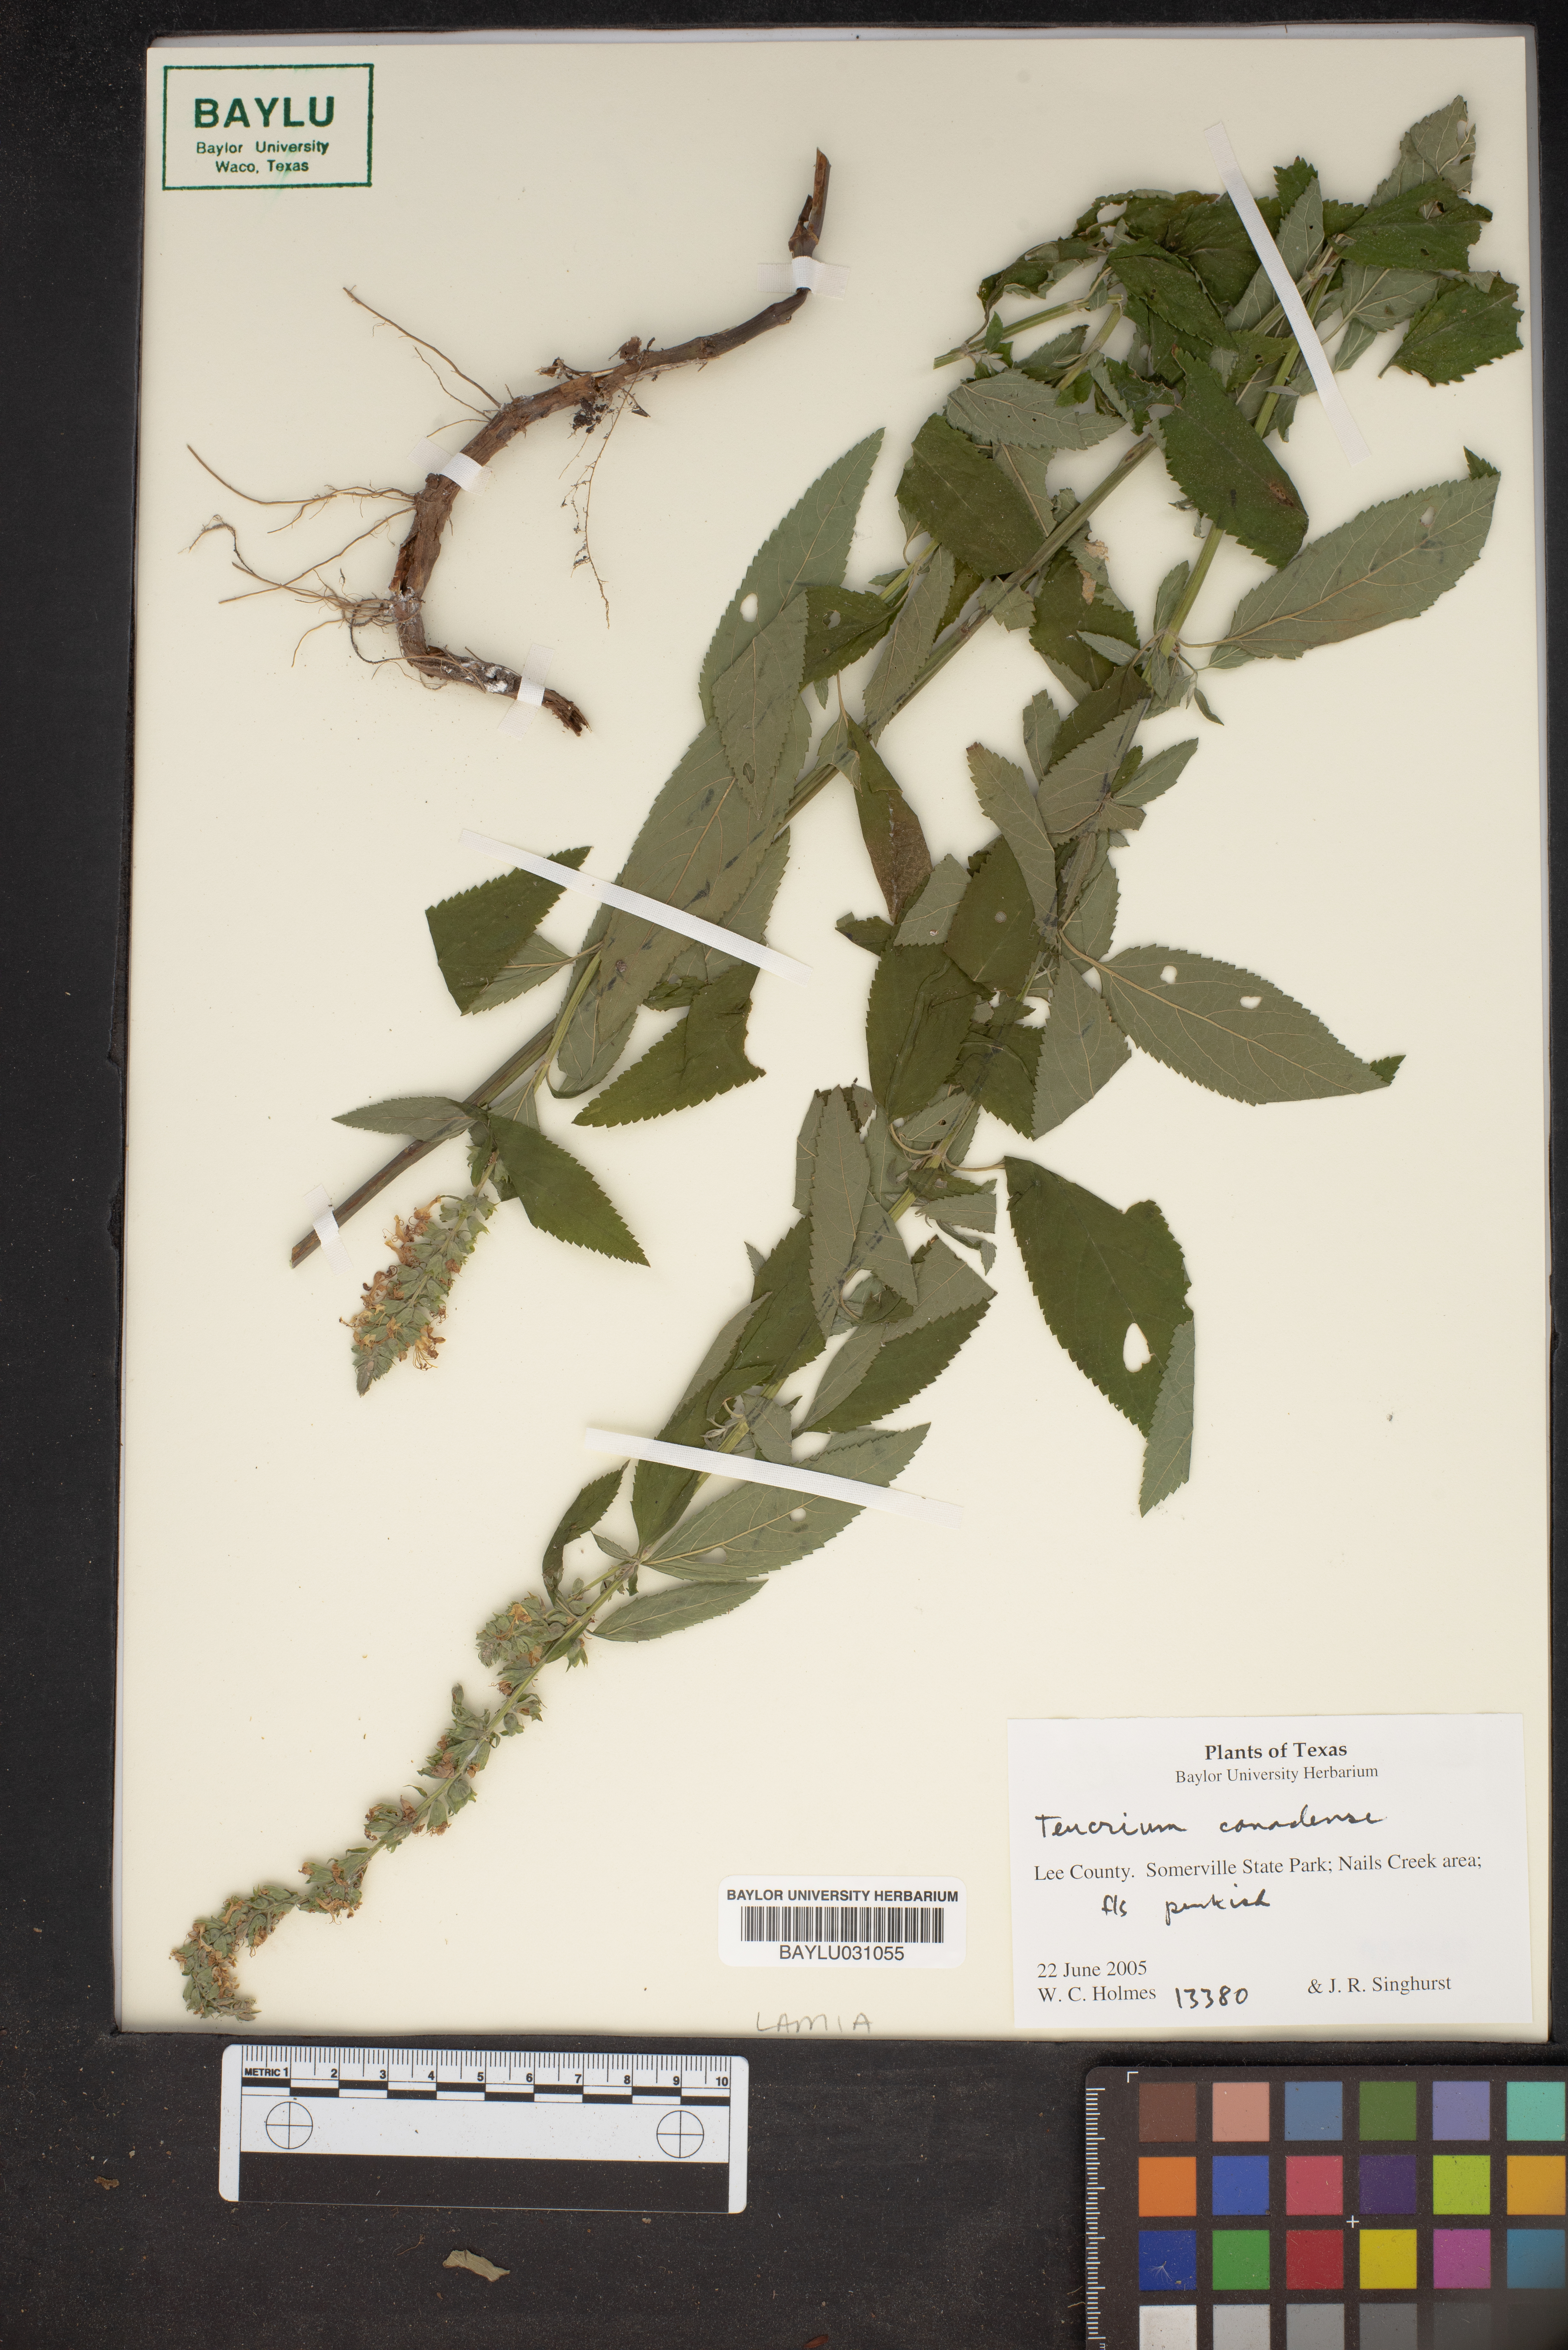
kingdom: Plantae
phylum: Tracheophyta
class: Magnoliopsida
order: Lamiales
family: Lamiaceae
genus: Teucrium
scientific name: Teucrium canadense
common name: American germander
